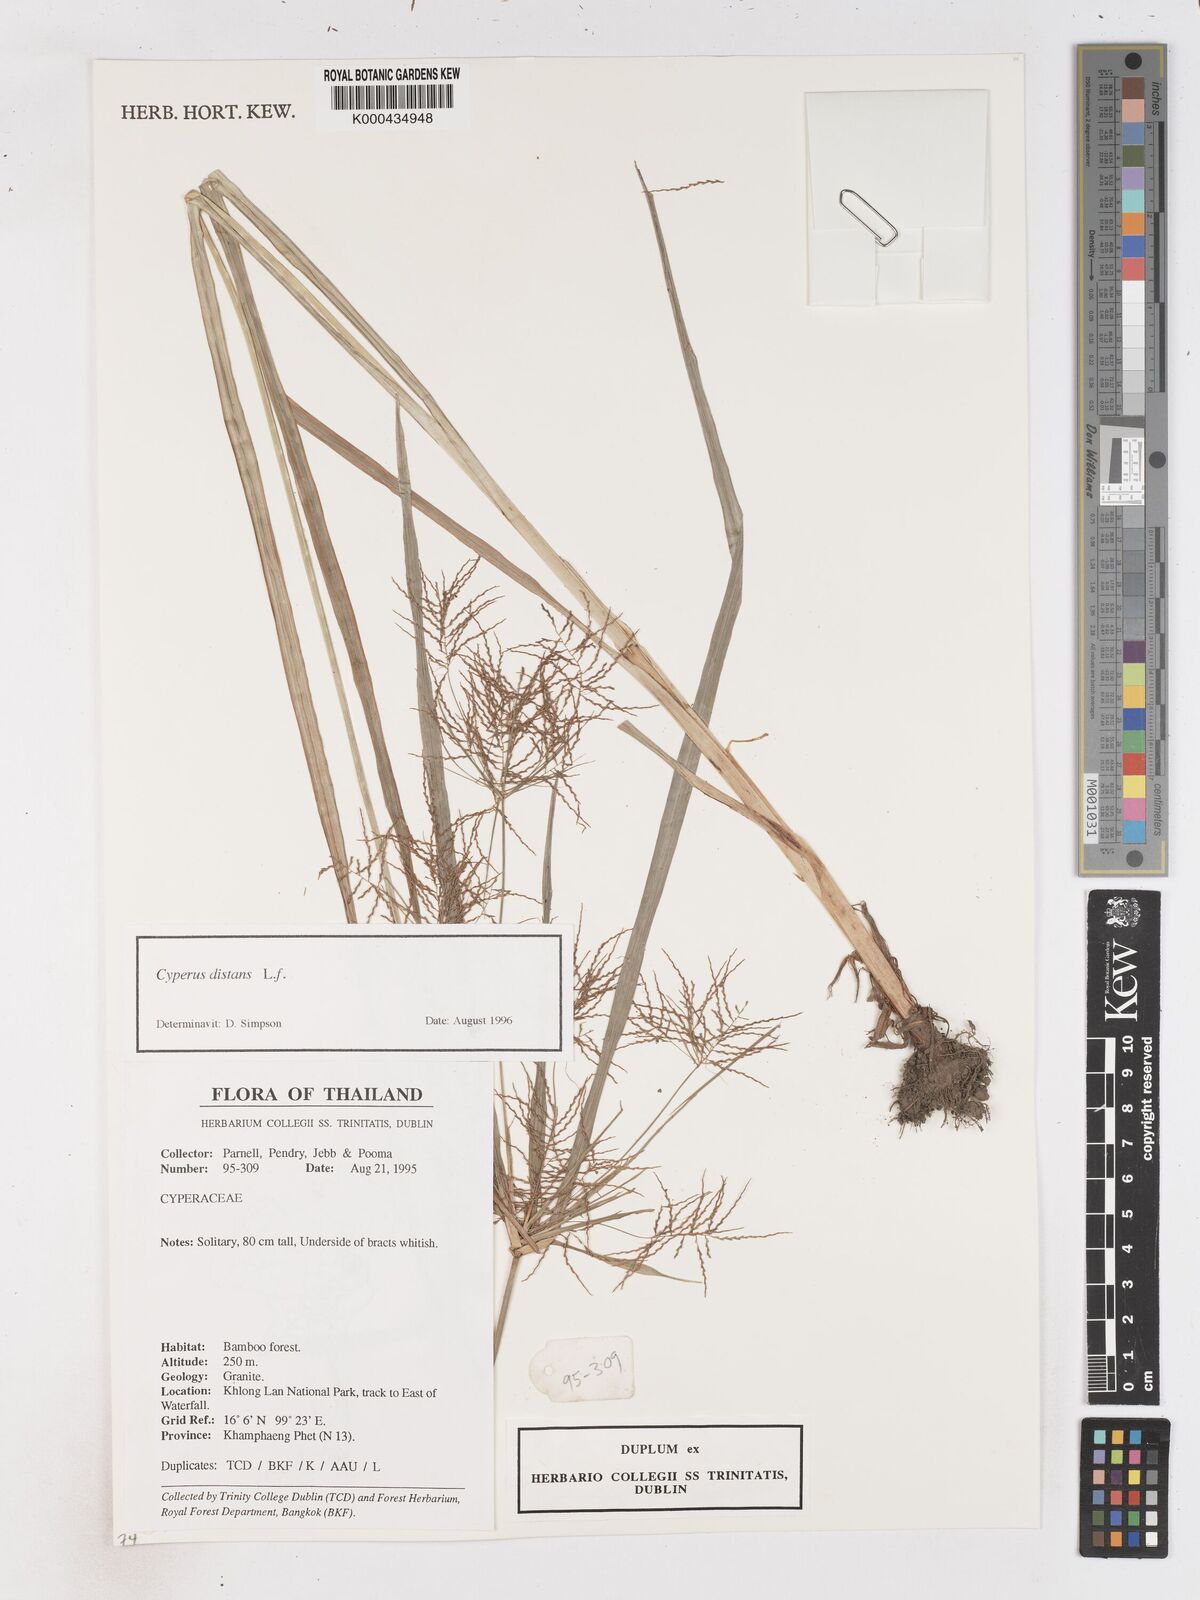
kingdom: Plantae
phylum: Tracheophyta
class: Liliopsida
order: Poales
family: Cyperaceae
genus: Cyperus
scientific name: Cyperus distans
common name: Slender cyperus
